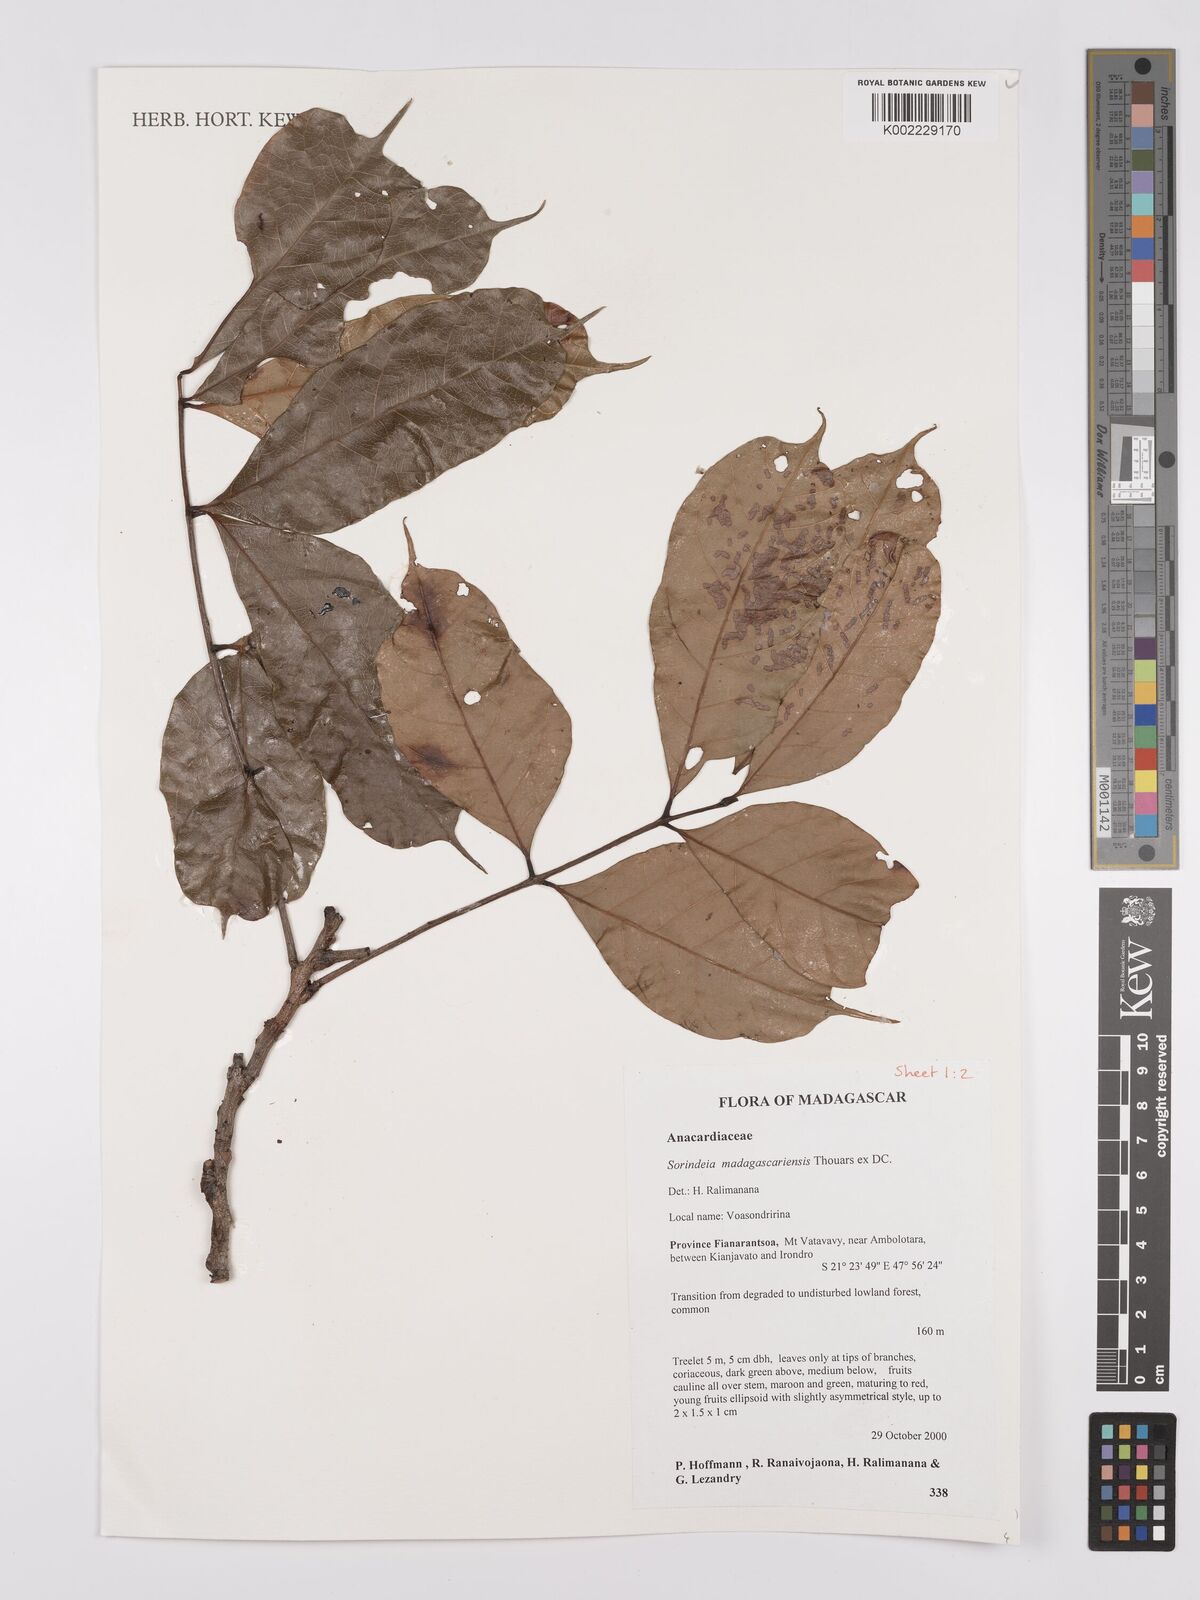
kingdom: Plantae
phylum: Tracheophyta
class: Magnoliopsida
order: Sapindales
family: Anacardiaceae
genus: Sorindeia
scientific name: Sorindeia madagascariensis
